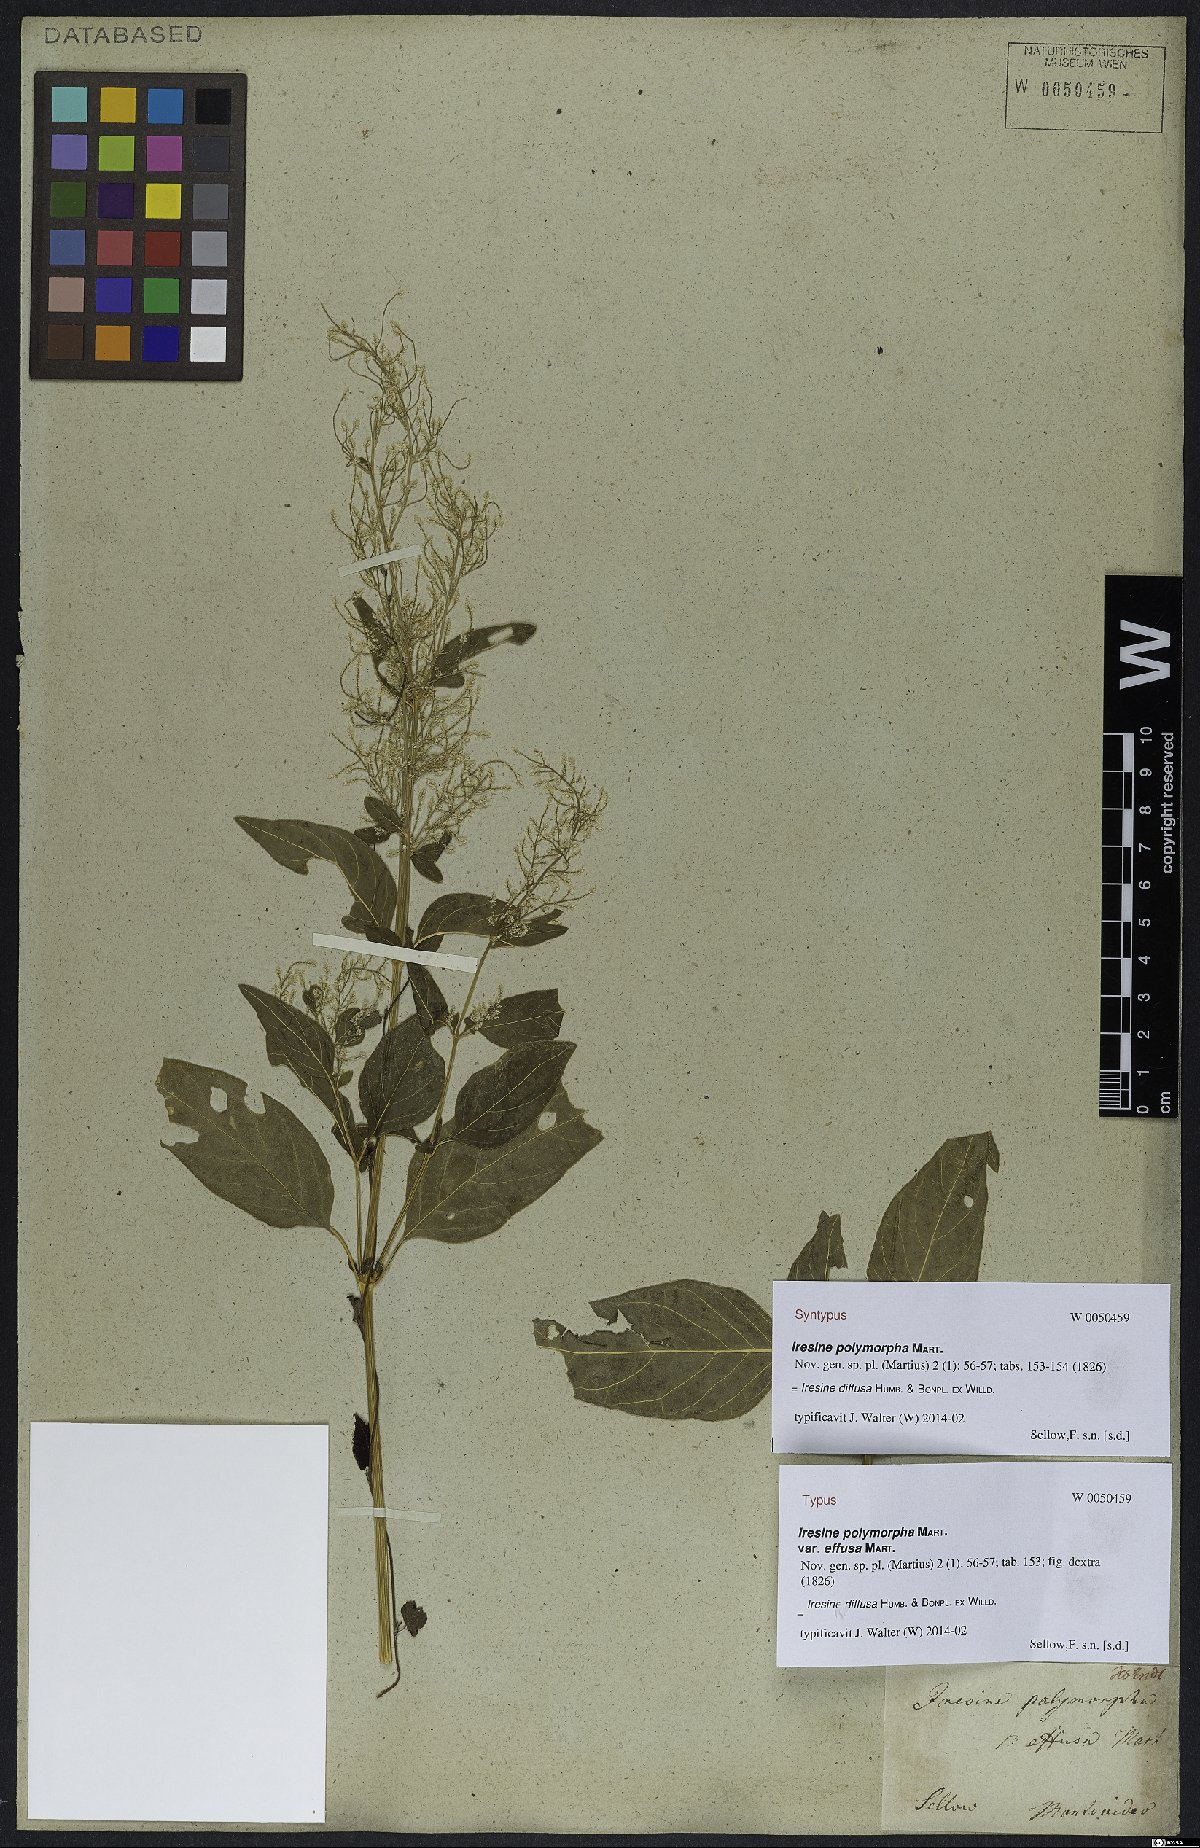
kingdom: Plantae
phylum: Tracheophyta
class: Magnoliopsida
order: Caryophyllales
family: Amaranthaceae
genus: Iresine
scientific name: Iresine diffusa
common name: Juba's-bush
